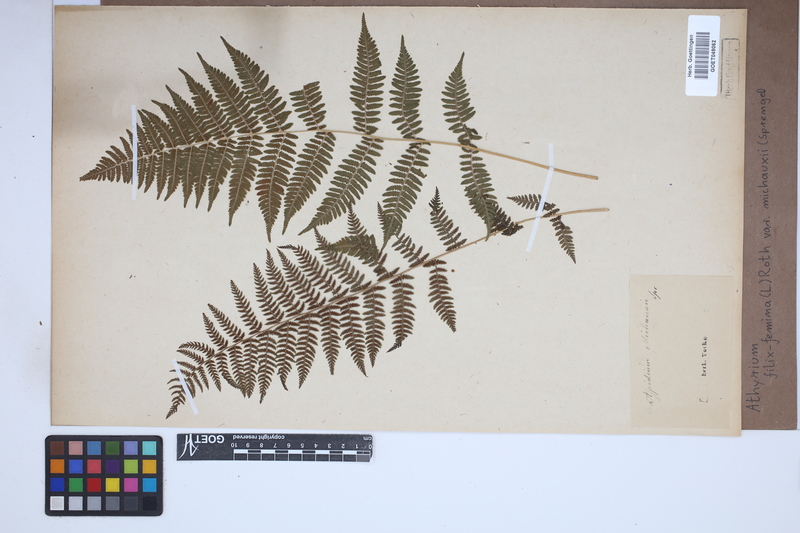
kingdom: Plantae
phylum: Tracheophyta
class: Polypodiopsida
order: Polypodiales
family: Athyriaceae
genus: Athyrium
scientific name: Athyrium angustum
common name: Northern lady fern
